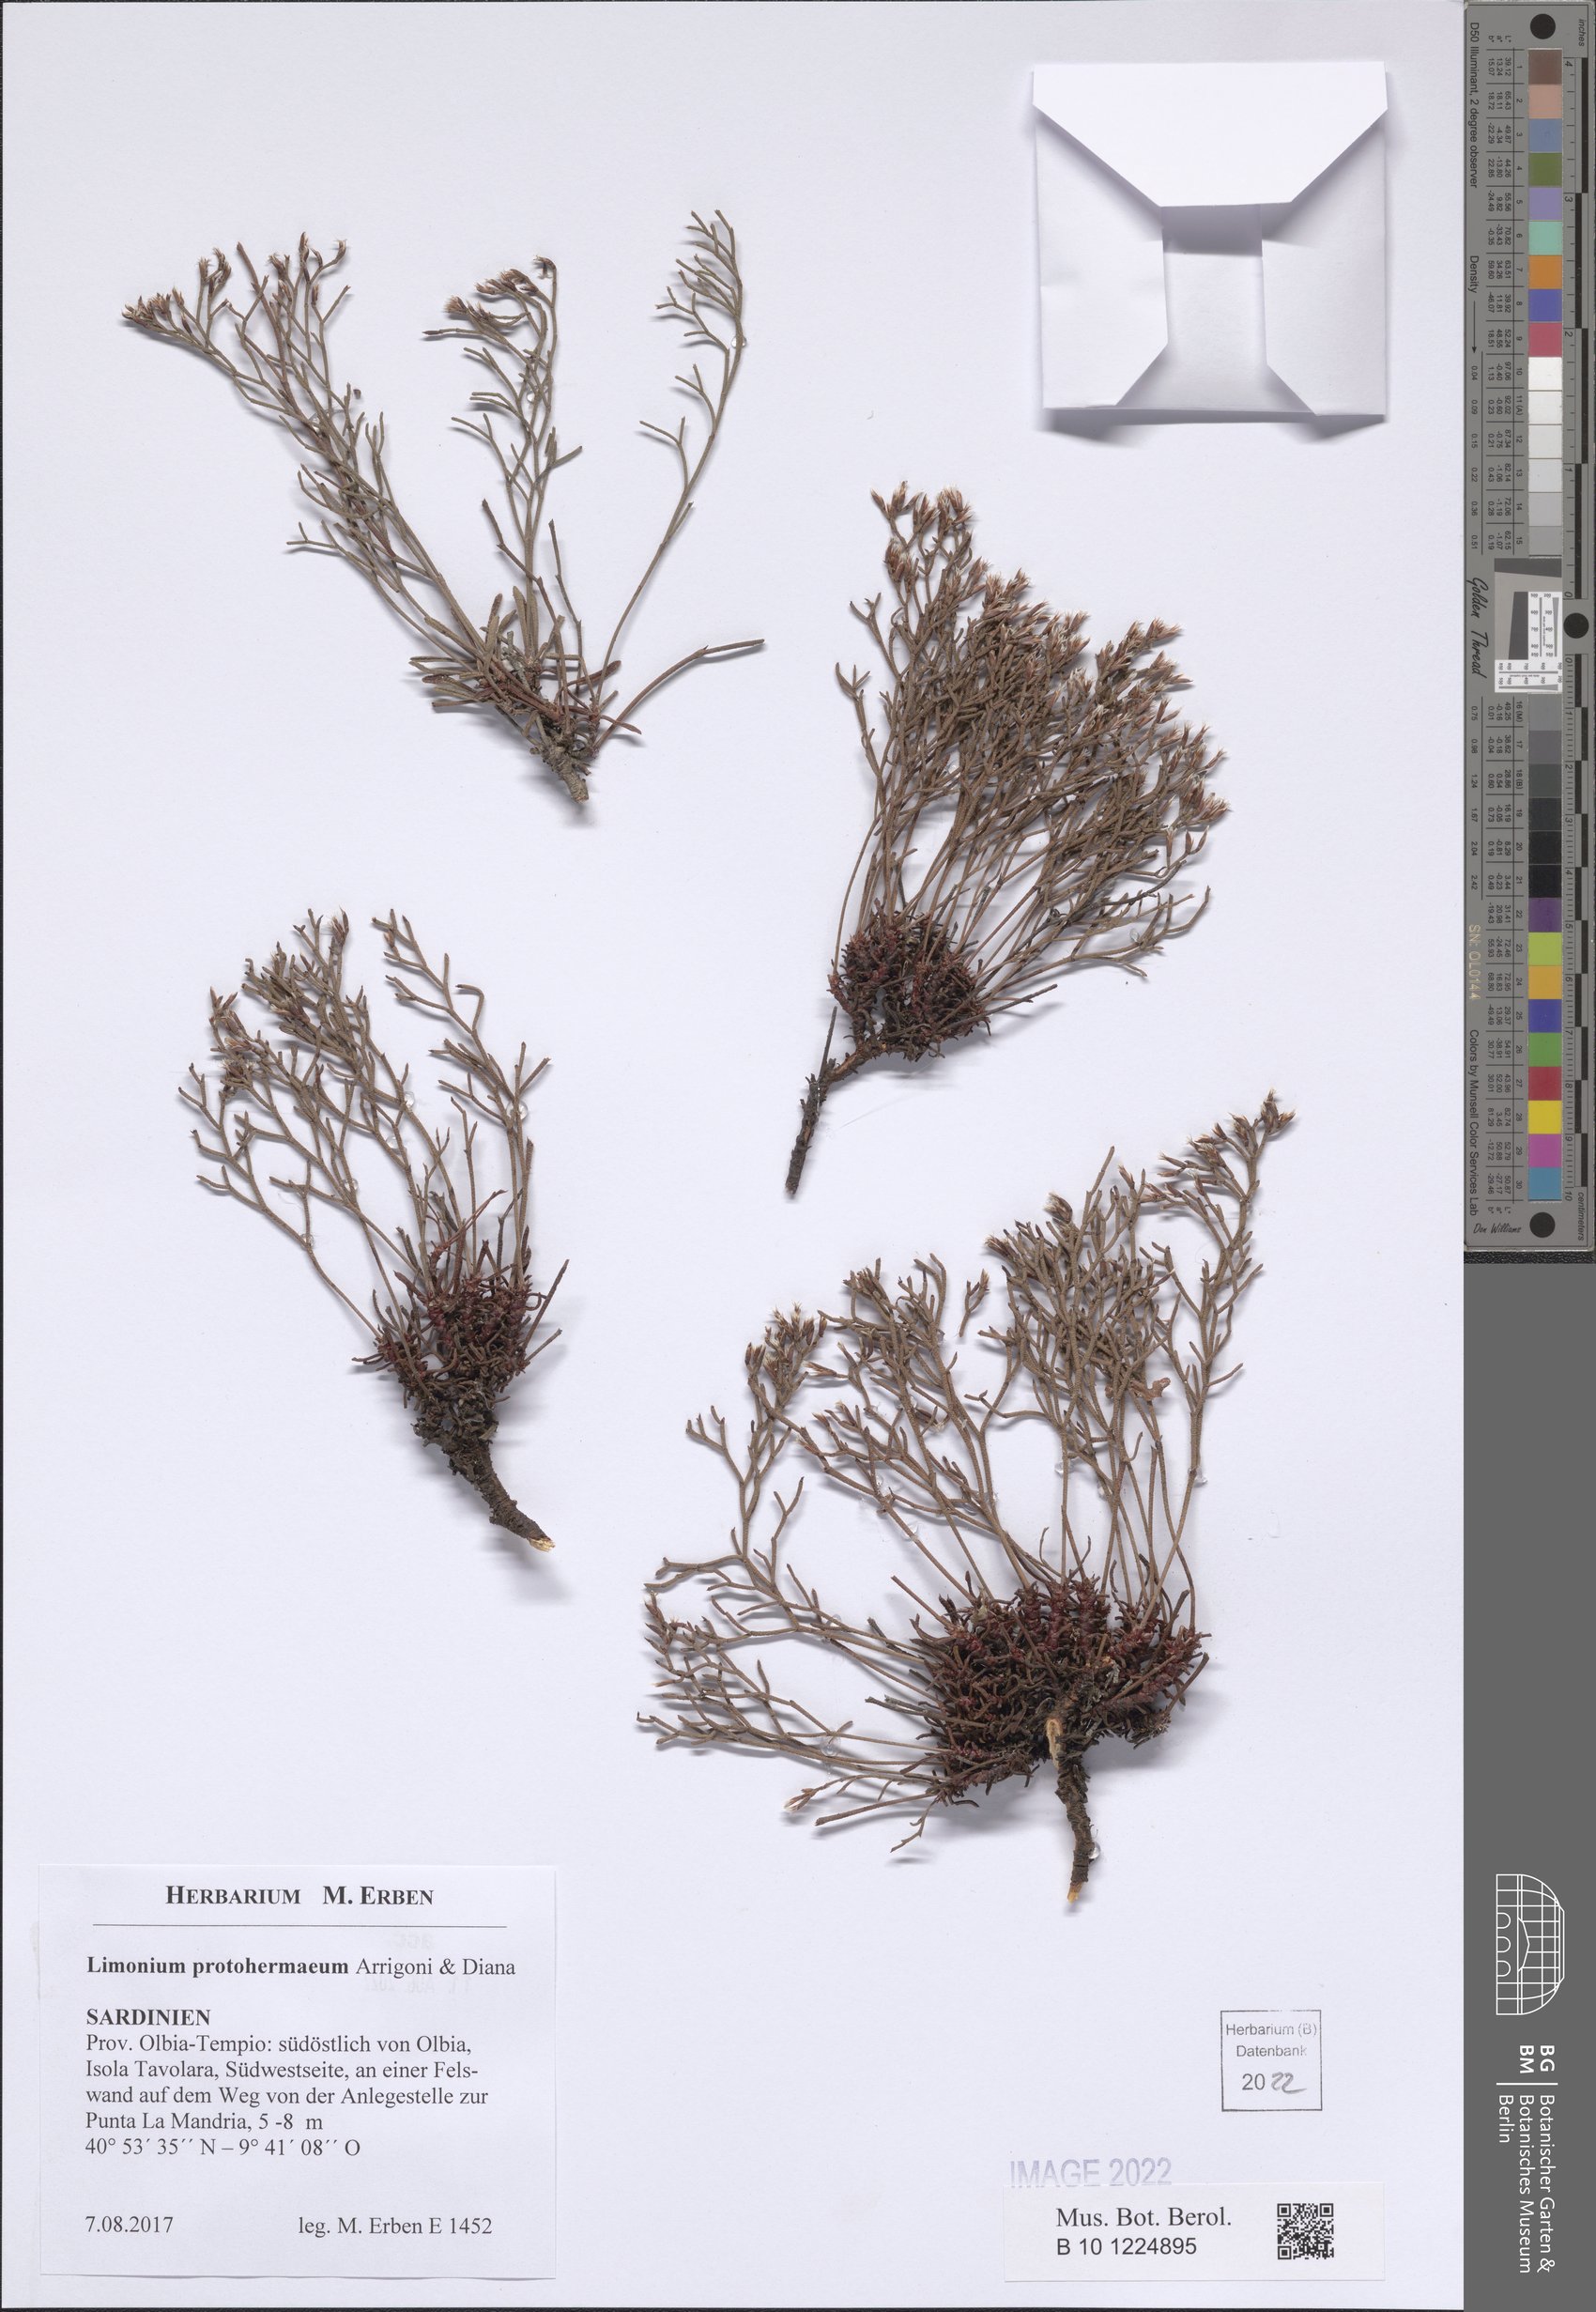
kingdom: Plantae
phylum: Tracheophyta
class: Magnoliopsida
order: Caryophyllales
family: Plumbaginaceae
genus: Limonium
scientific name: Limonium protohermaeum
